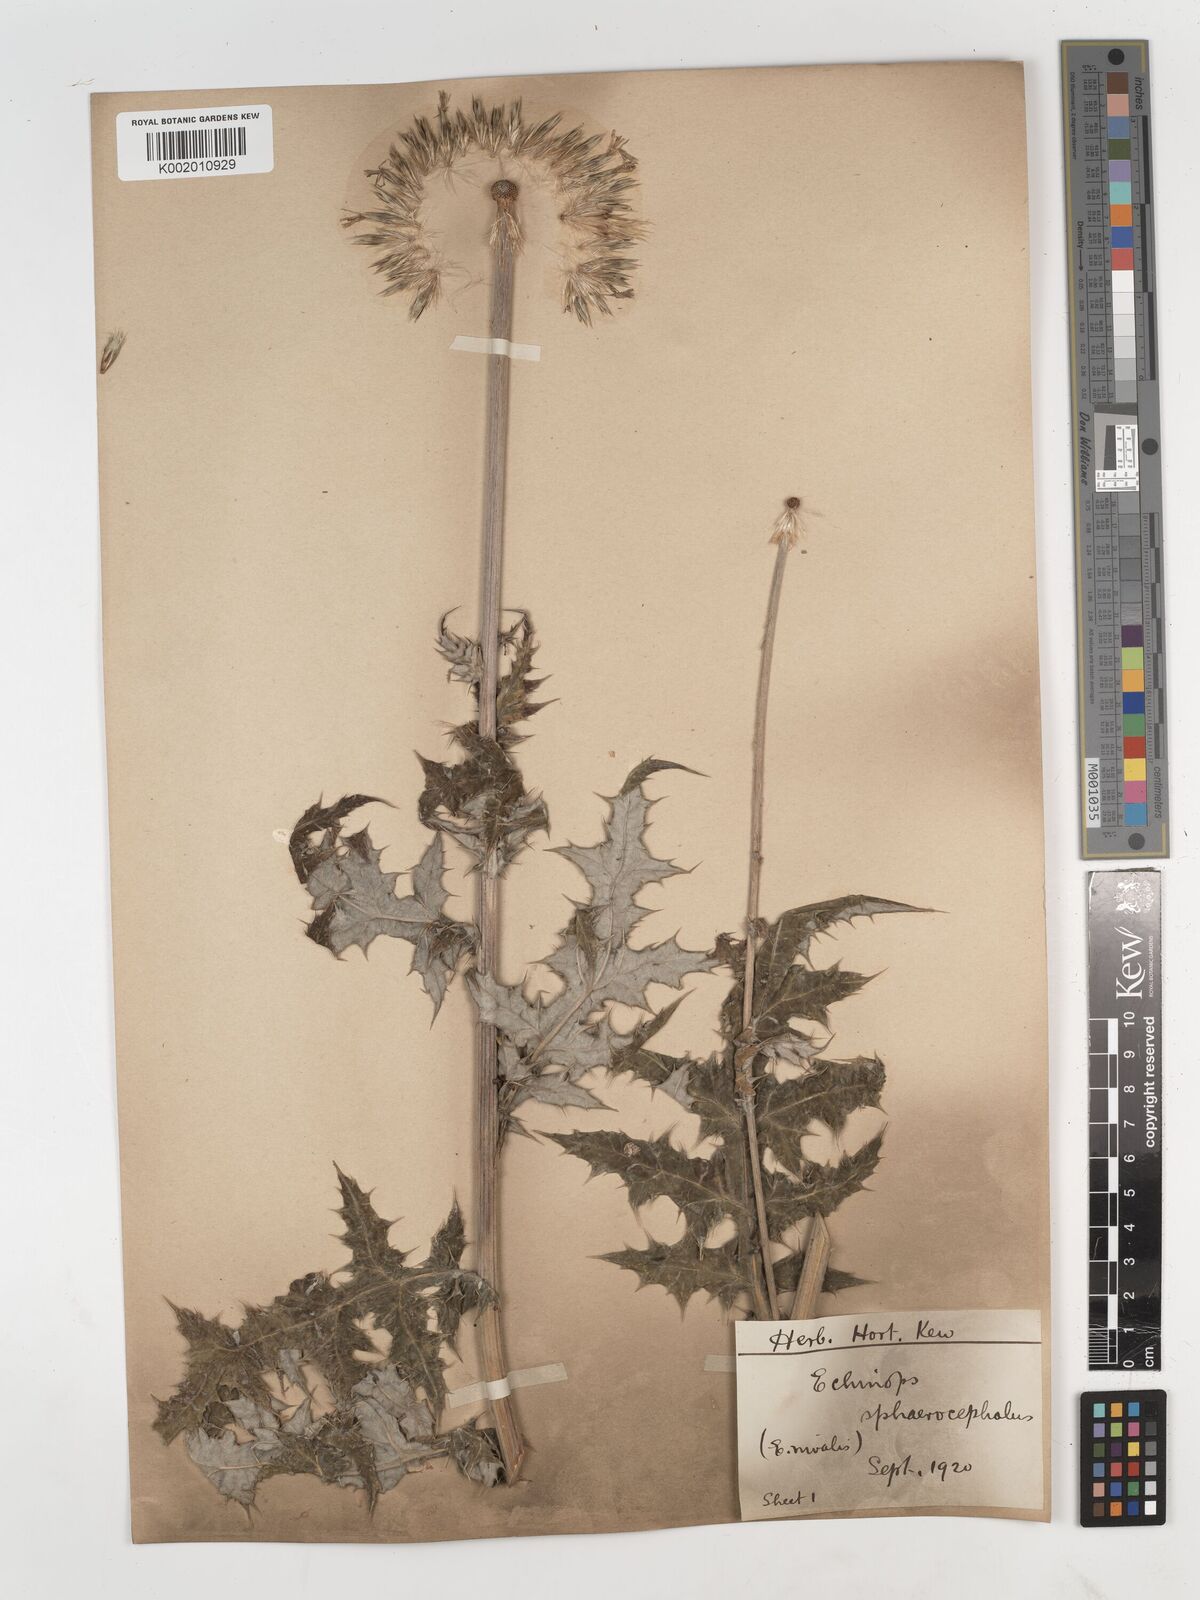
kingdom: Plantae
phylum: Tracheophyta
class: Magnoliopsida
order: Asterales
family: Asteraceae
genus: Echinops
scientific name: Echinops sphaerocephalus
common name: Glandular globe-thistle
